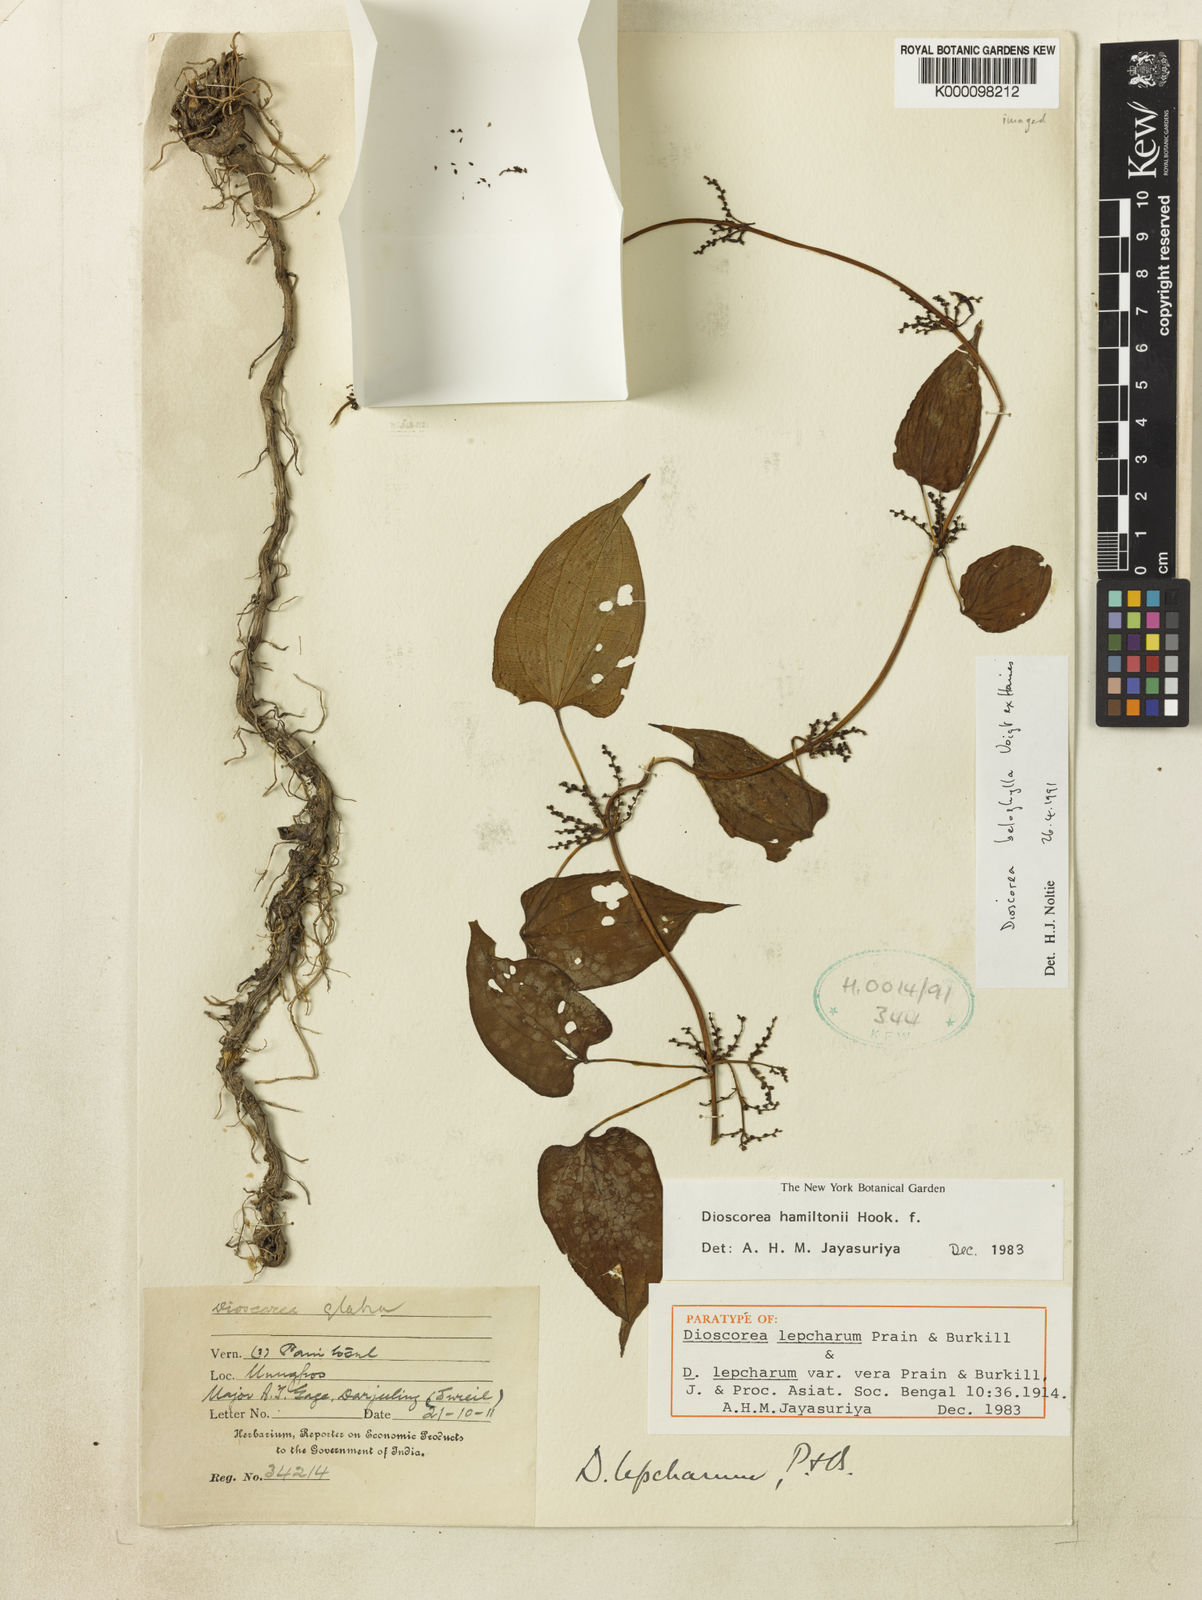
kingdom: Plantae
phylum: Tracheophyta
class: Liliopsida
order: Dioscoreales
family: Dioscoreaceae
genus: Dioscorea
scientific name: Dioscorea lepcharum
